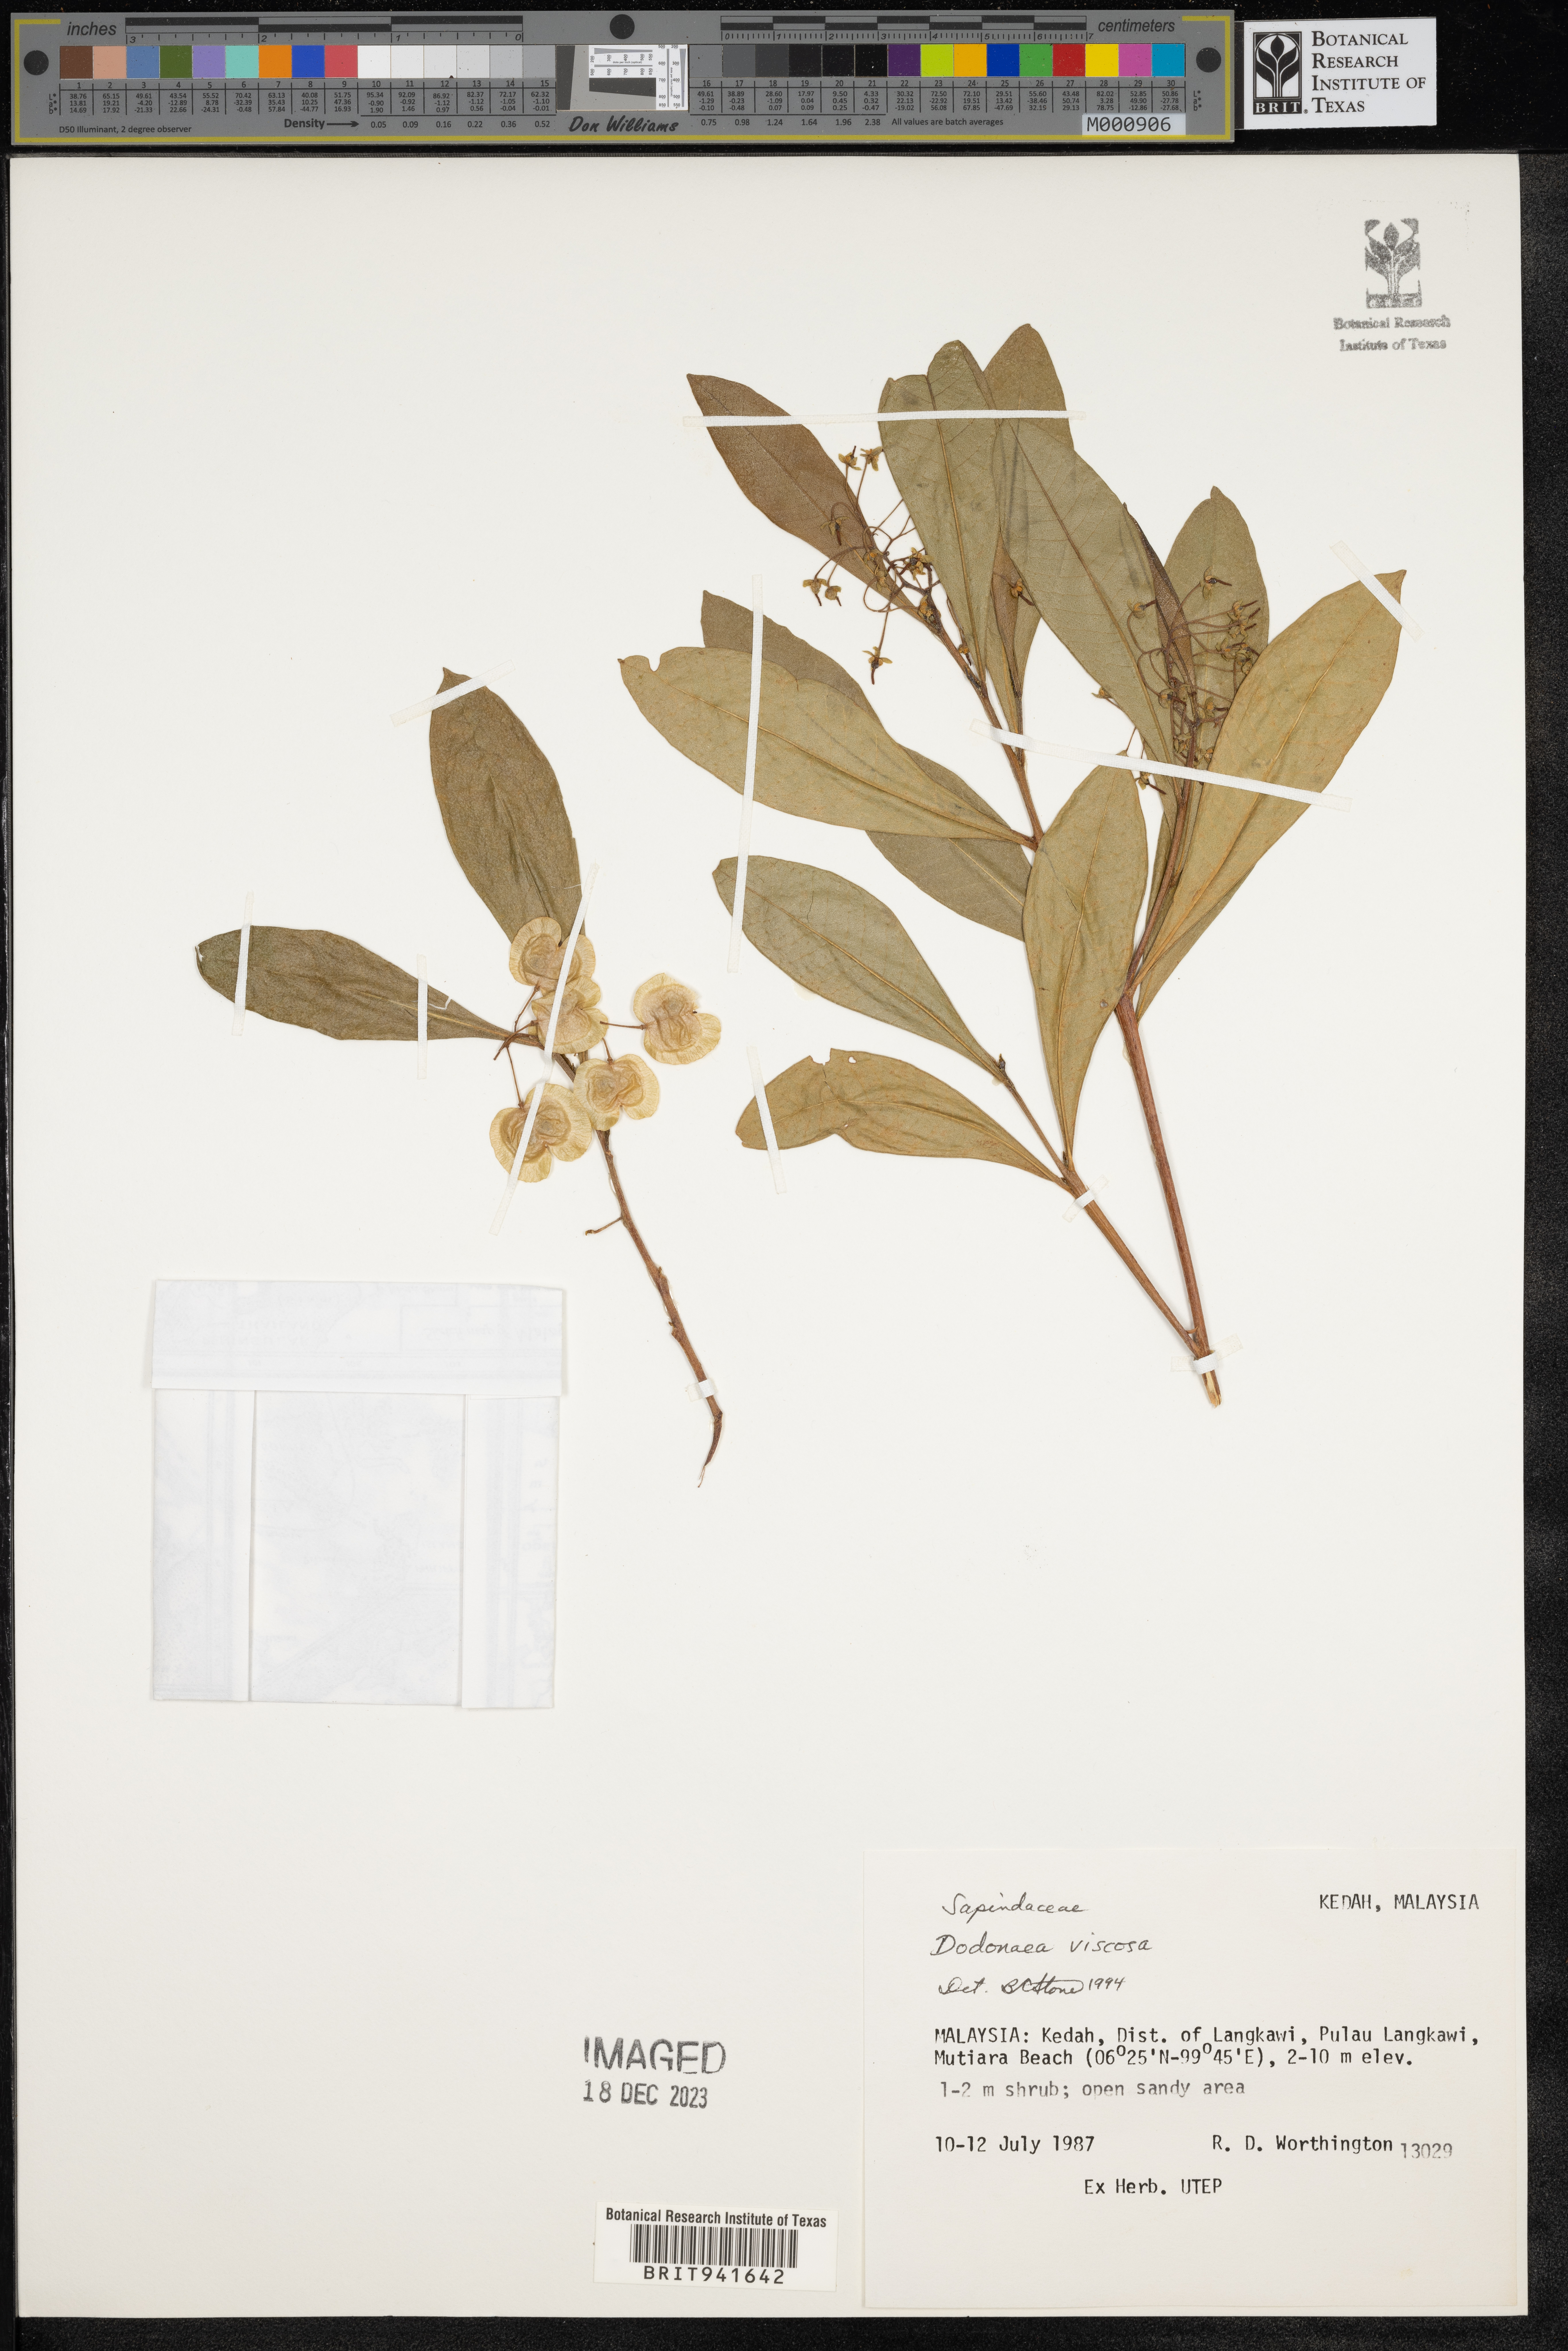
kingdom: Plantae
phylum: Tracheophyta
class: Magnoliopsida
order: Sapindales
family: Sapindaceae
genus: Dodonaea
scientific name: Dodonaea
